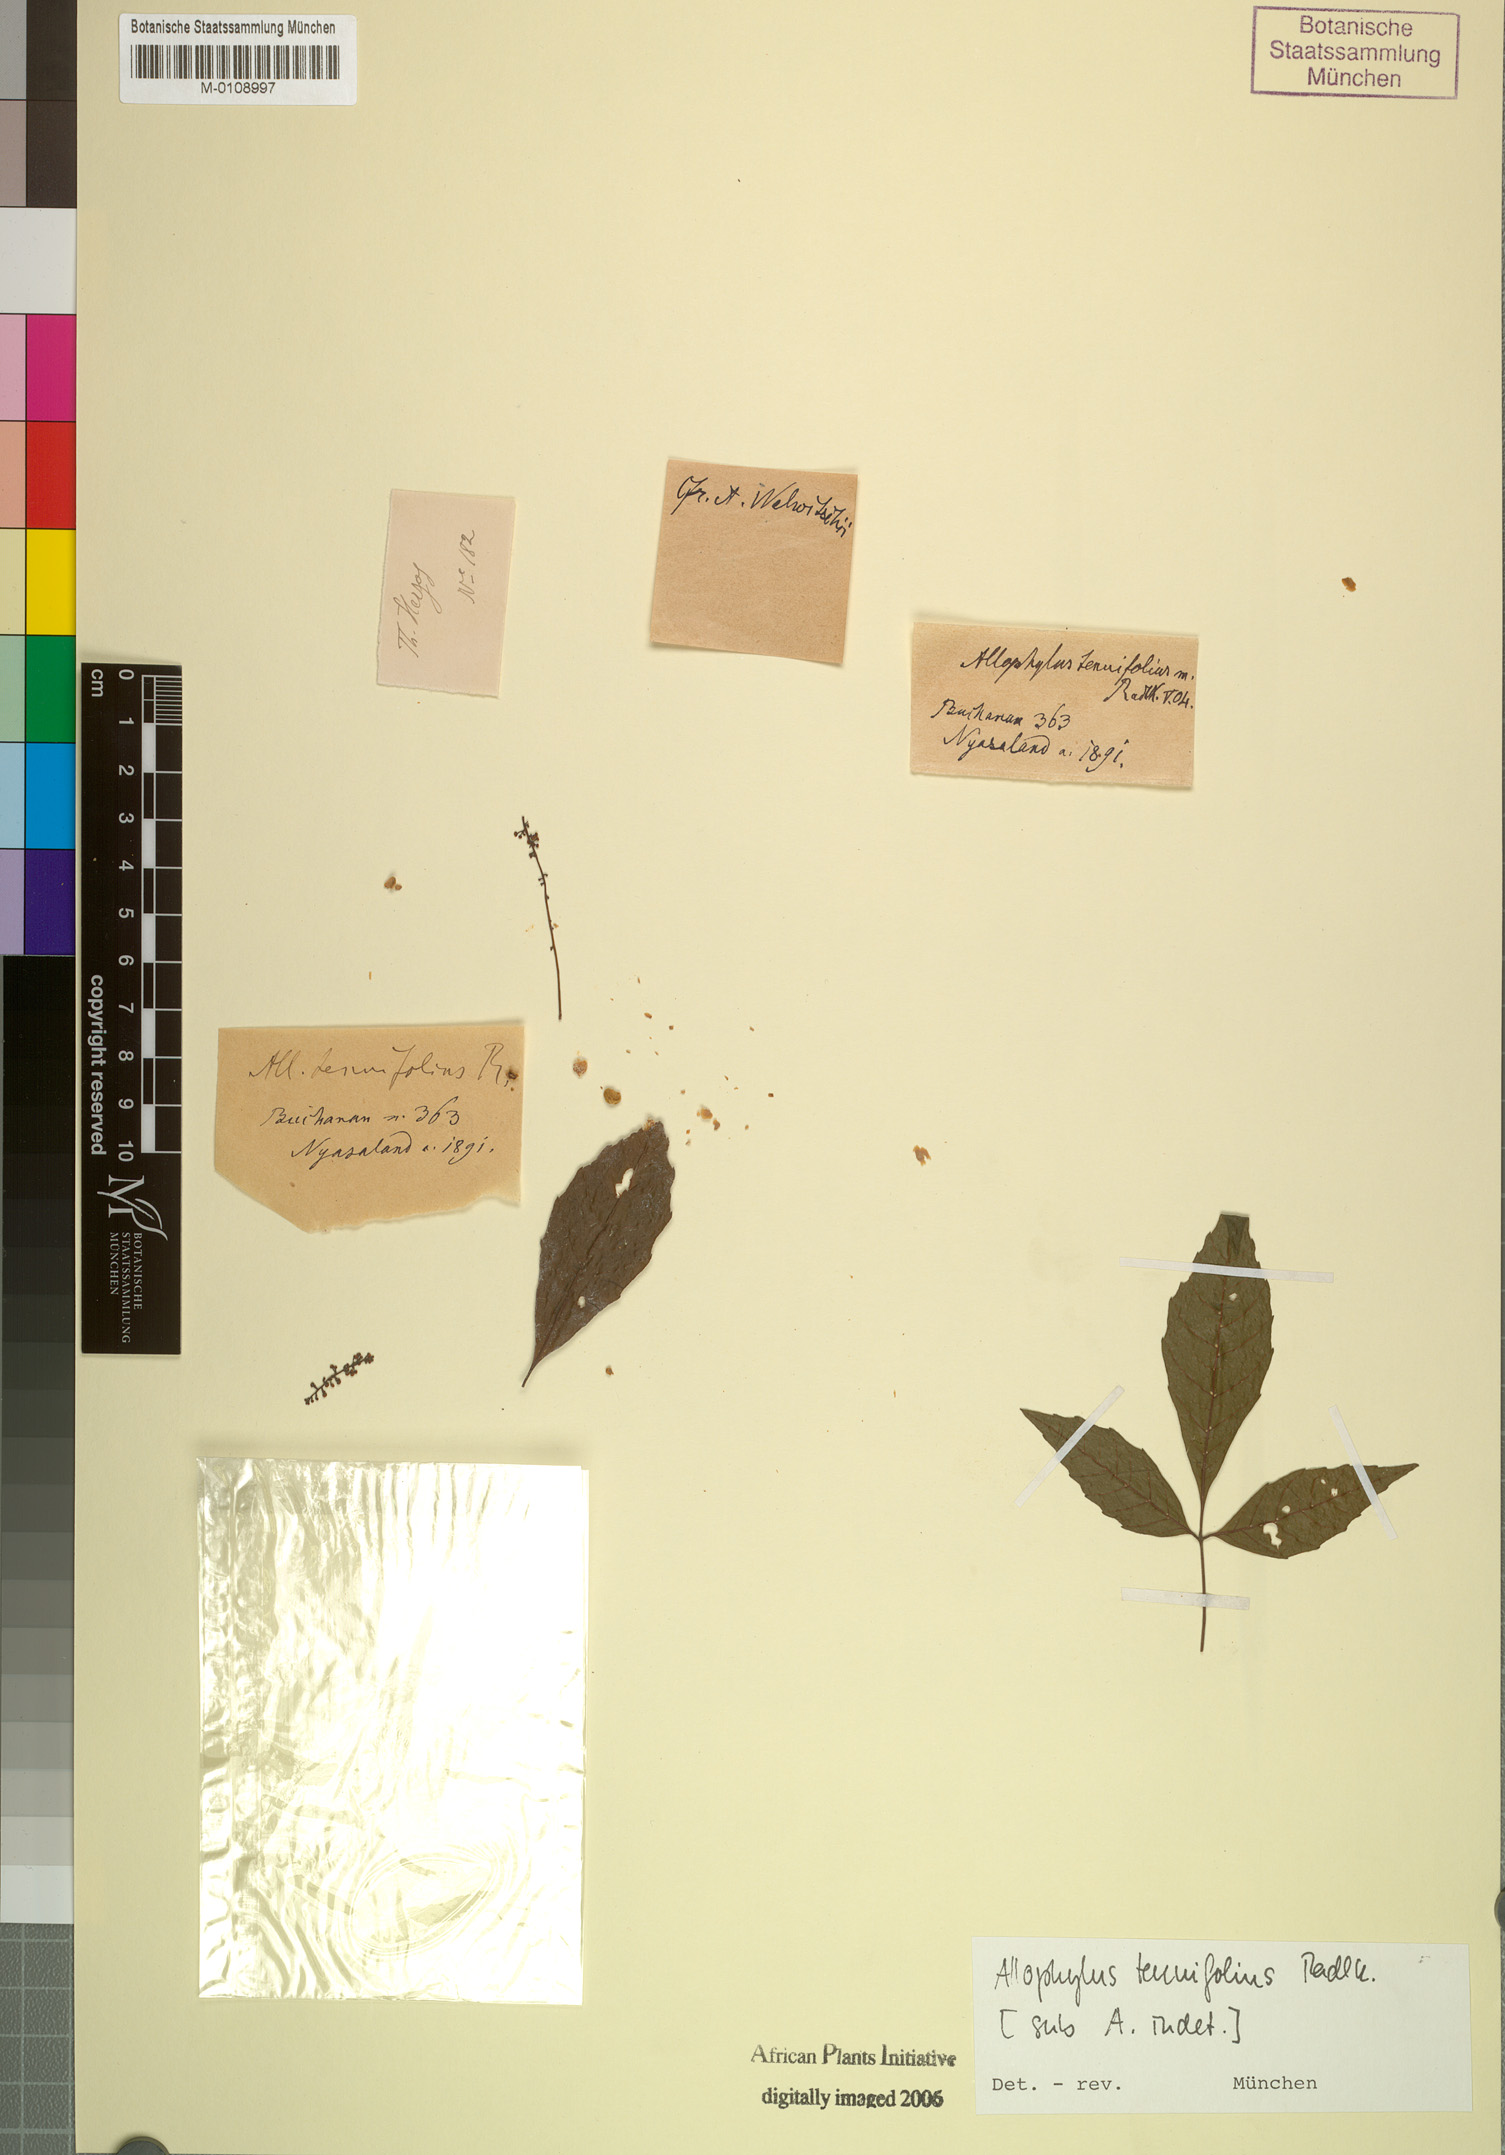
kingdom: Plantae
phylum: Tracheophyta
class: Magnoliopsida
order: Sapindales
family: Sapindaceae
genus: Allophylus
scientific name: Allophylus chaunostachys
